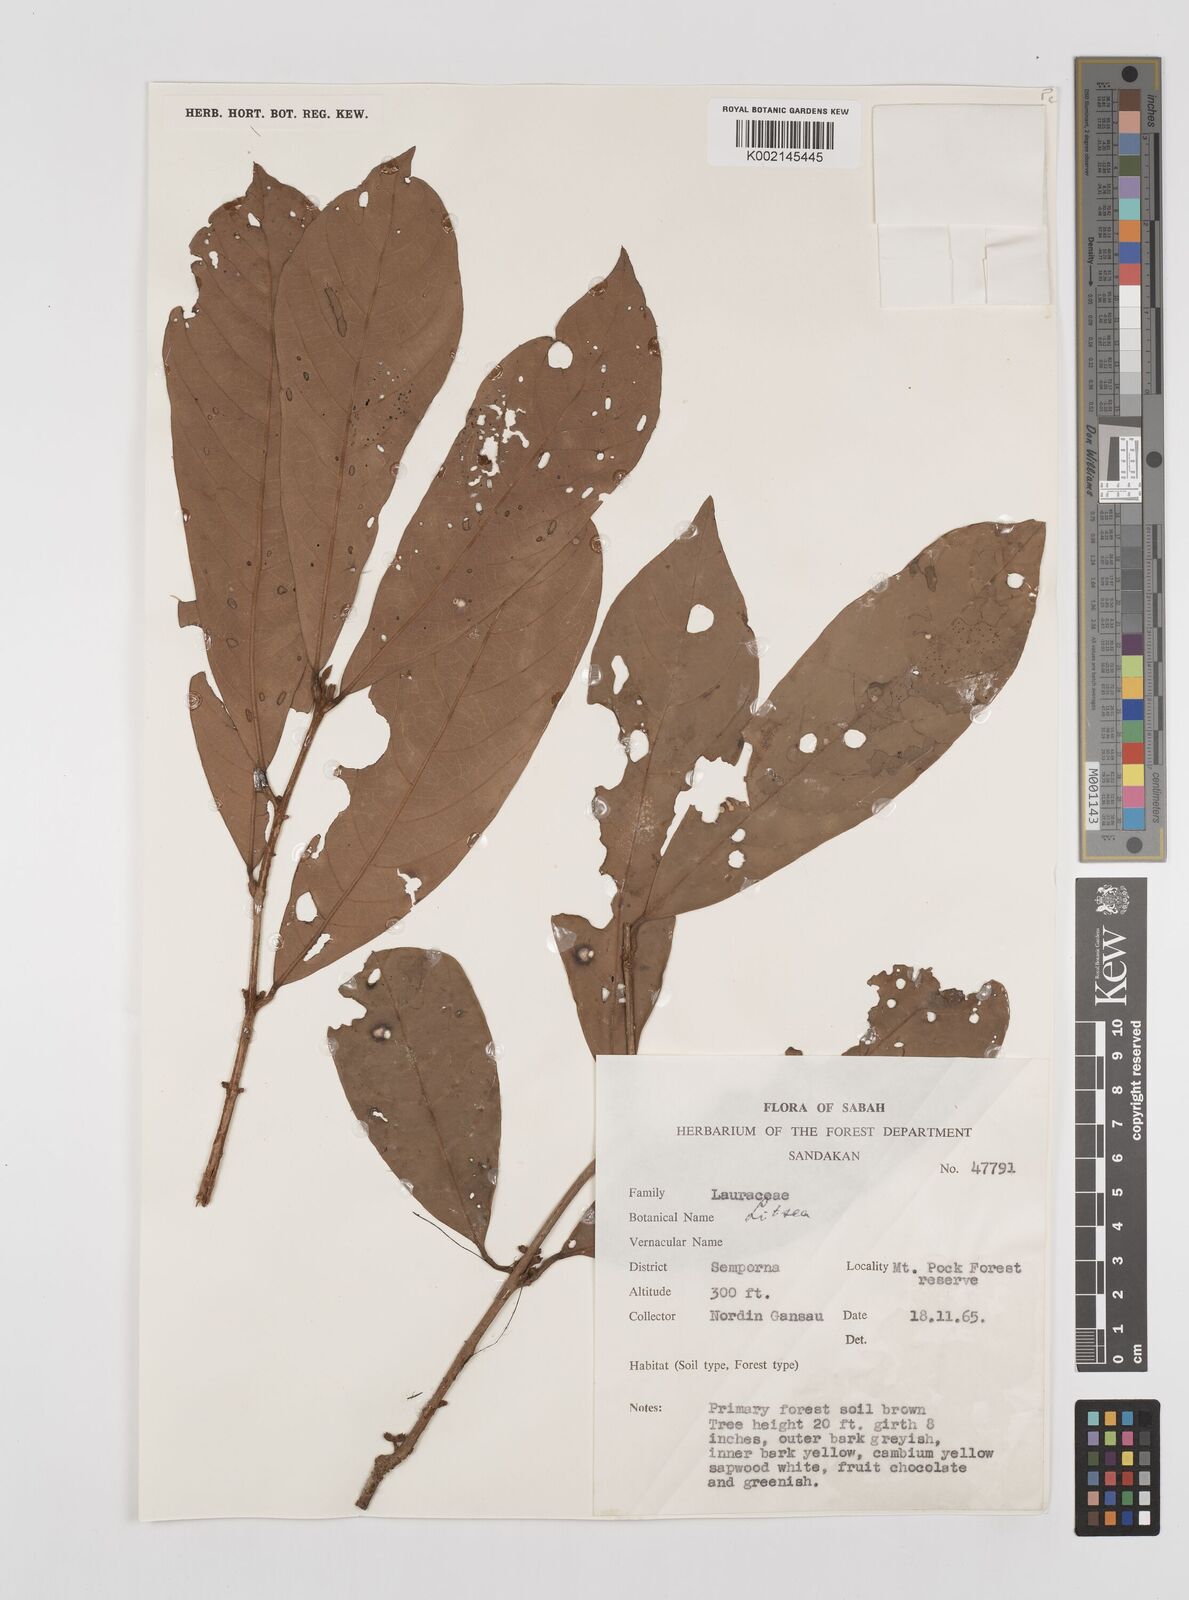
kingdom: Plantae
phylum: Tracheophyta
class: Magnoliopsida
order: Laurales
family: Lauraceae
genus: Litsea
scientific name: Litsea
